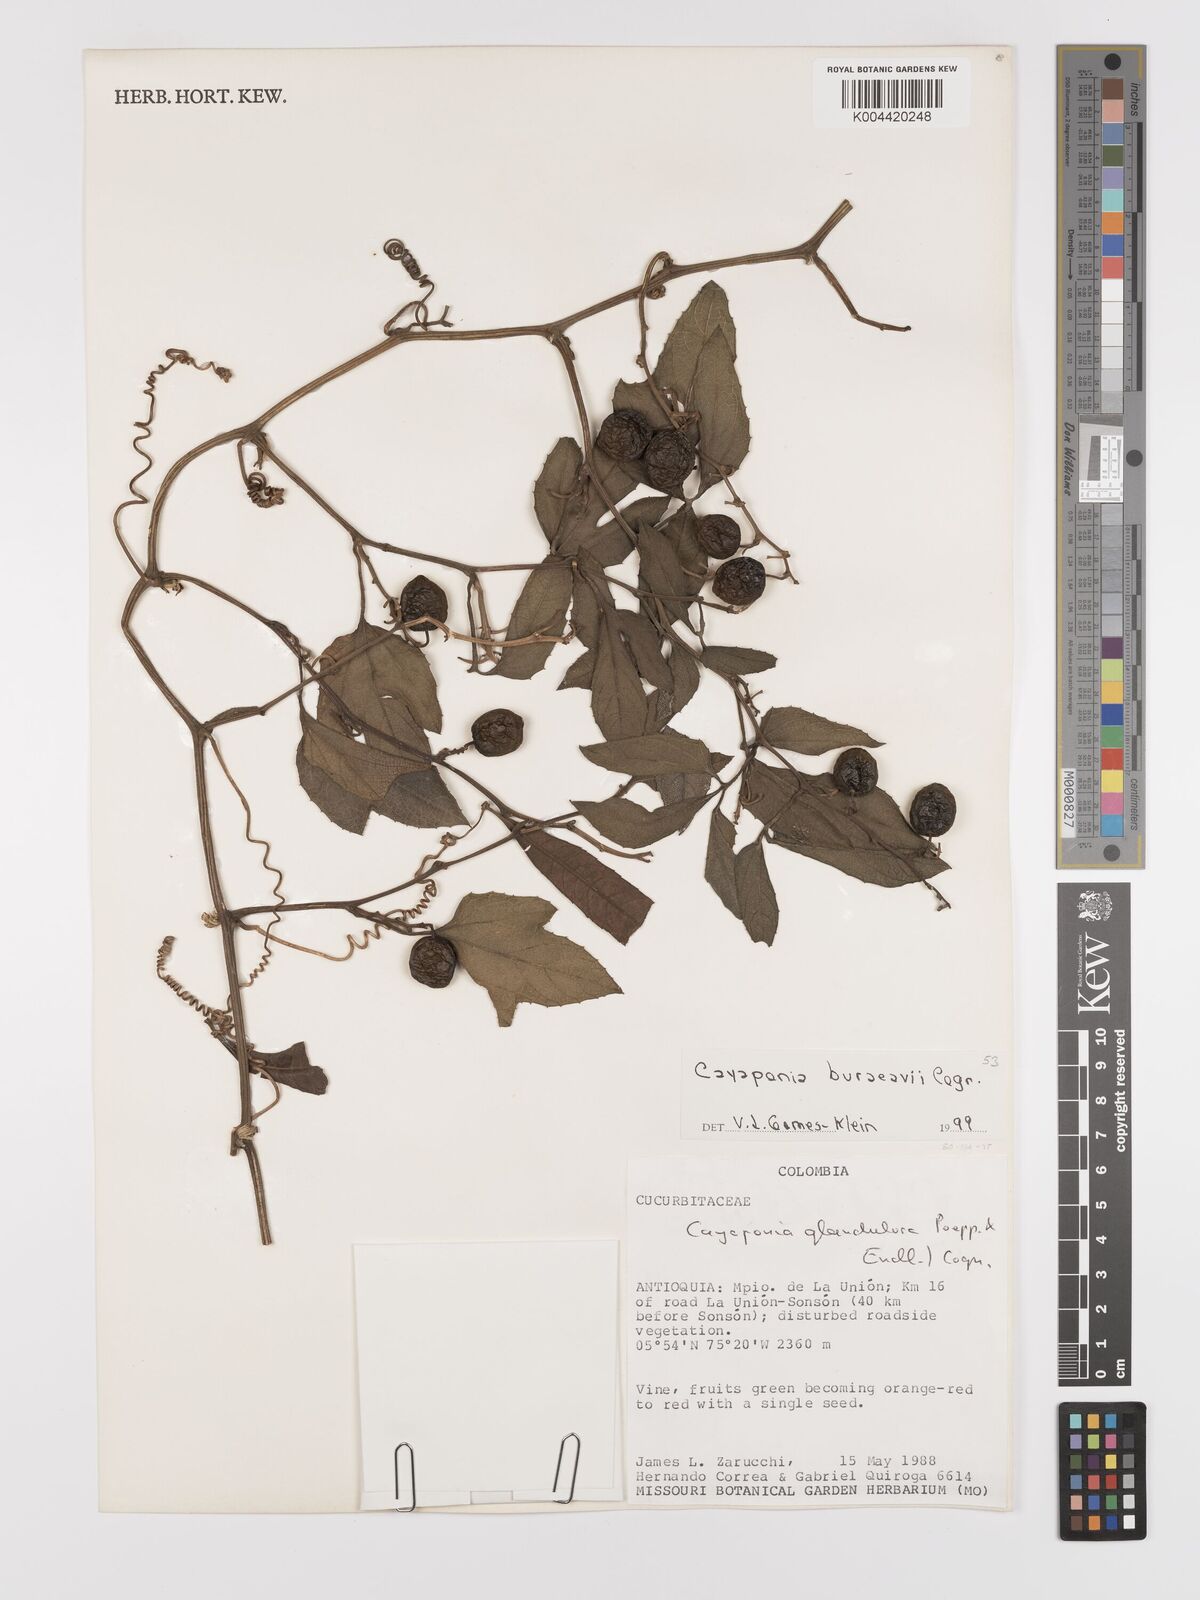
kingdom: Plantae
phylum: Tracheophyta
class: Magnoliopsida
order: Cucurbitales
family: Cucurbitaceae
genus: Cayaponia
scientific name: Cayaponia buraeavii
